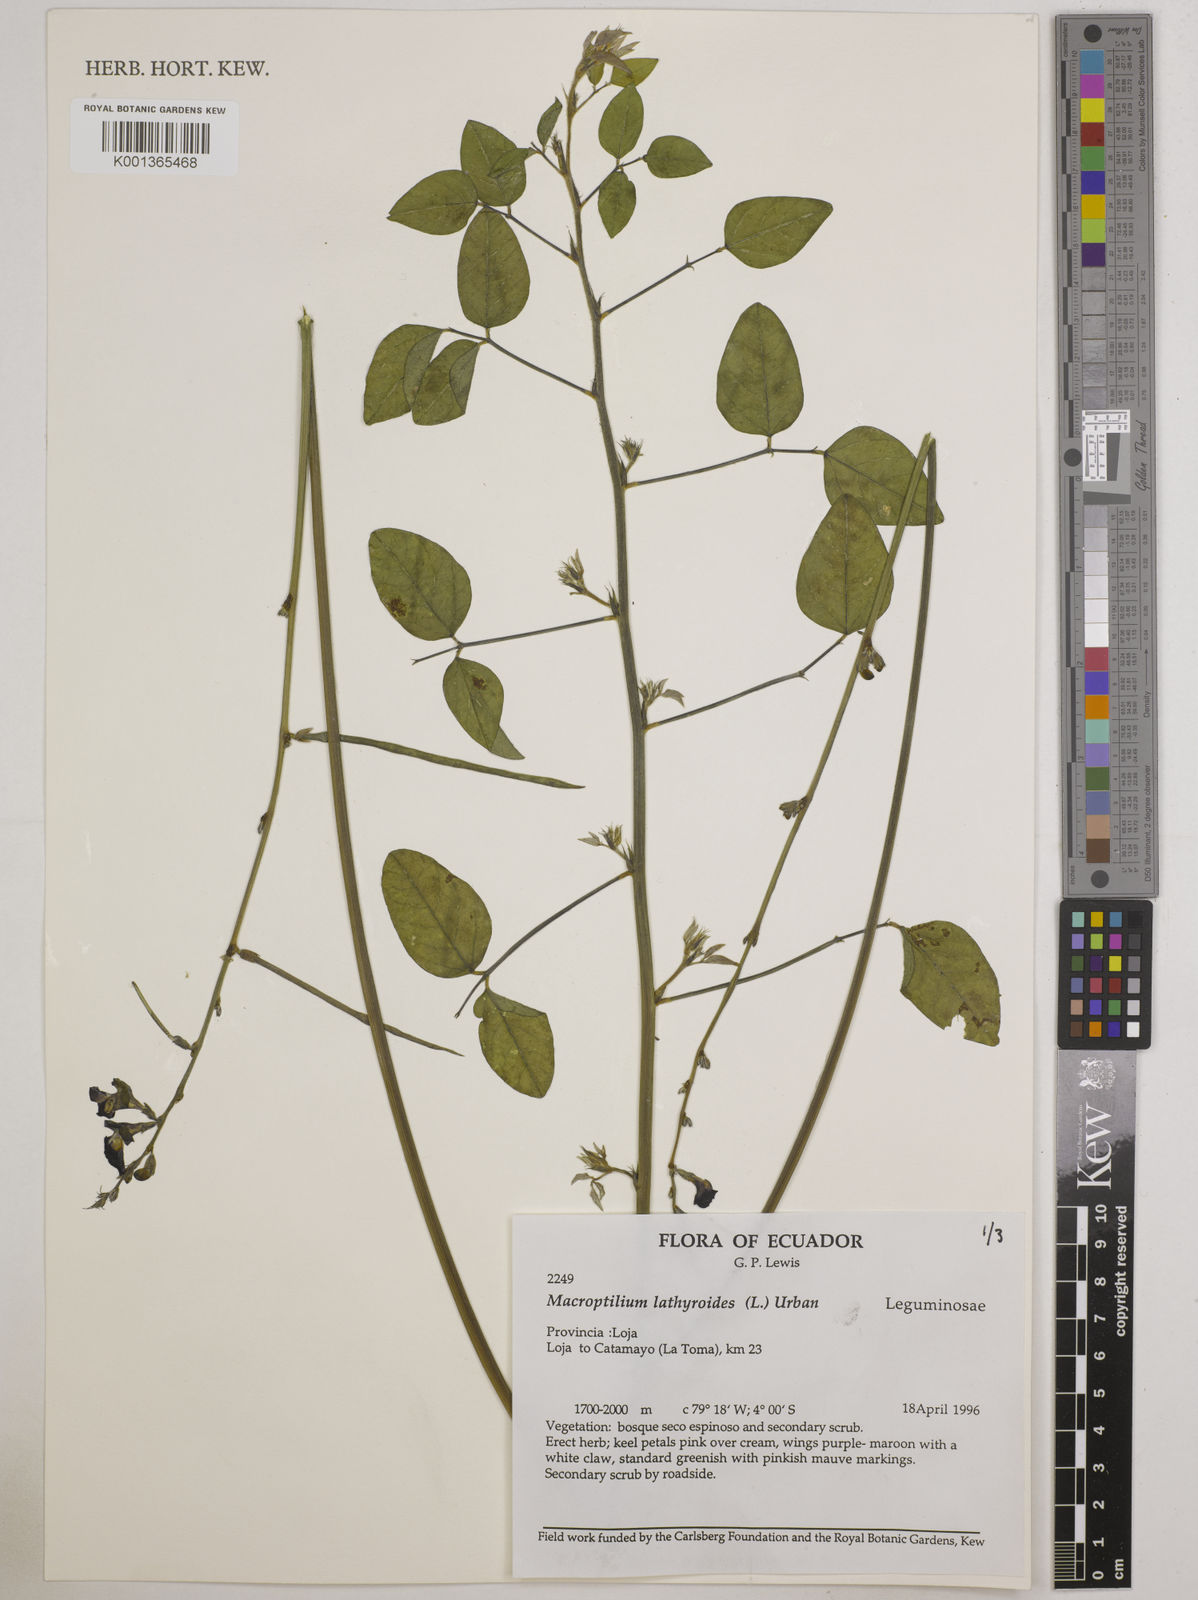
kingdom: Plantae
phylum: Tracheophyta
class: Magnoliopsida
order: Fabales
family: Fabaceae
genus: Macroptilium
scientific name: Macroptilium lathyroides
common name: Wild bushbean
